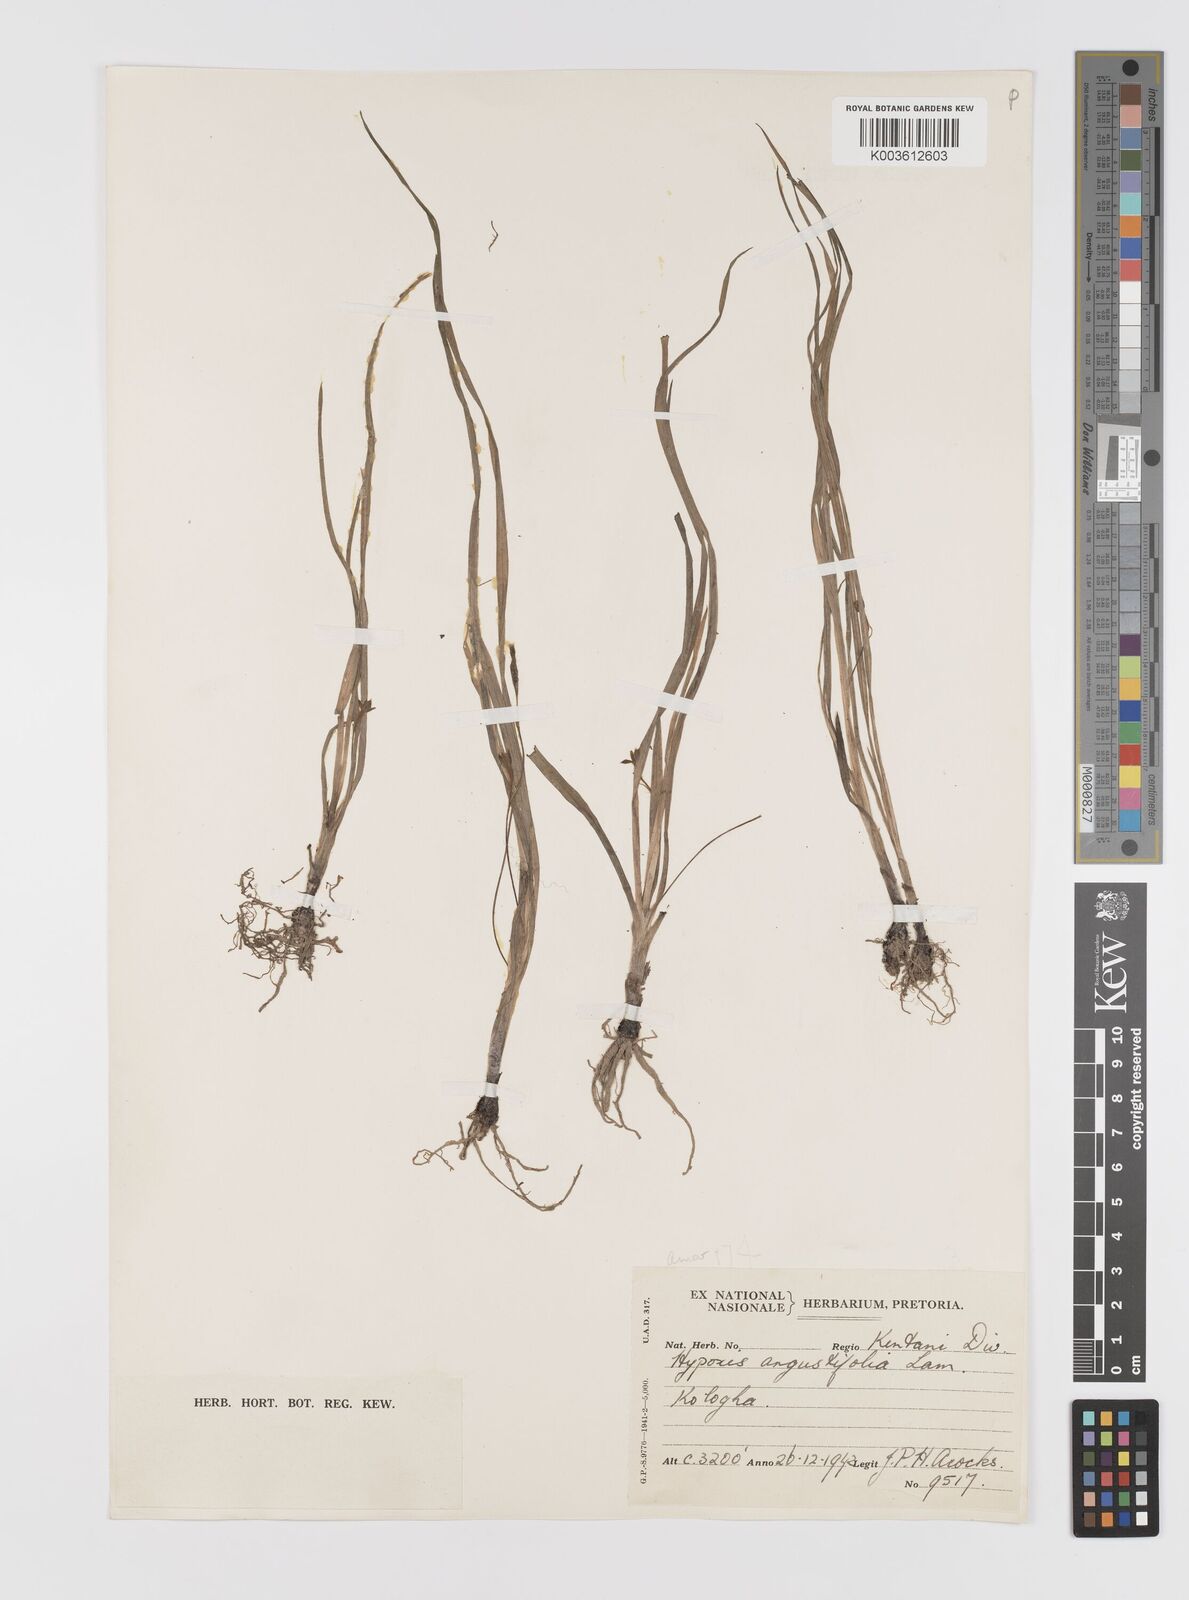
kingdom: Plantae
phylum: Tracheophyta
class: Liliopsida
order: Asparagales
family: Hypoxidaceae
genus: Hypoxis
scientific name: Hypoxis angustifolia
